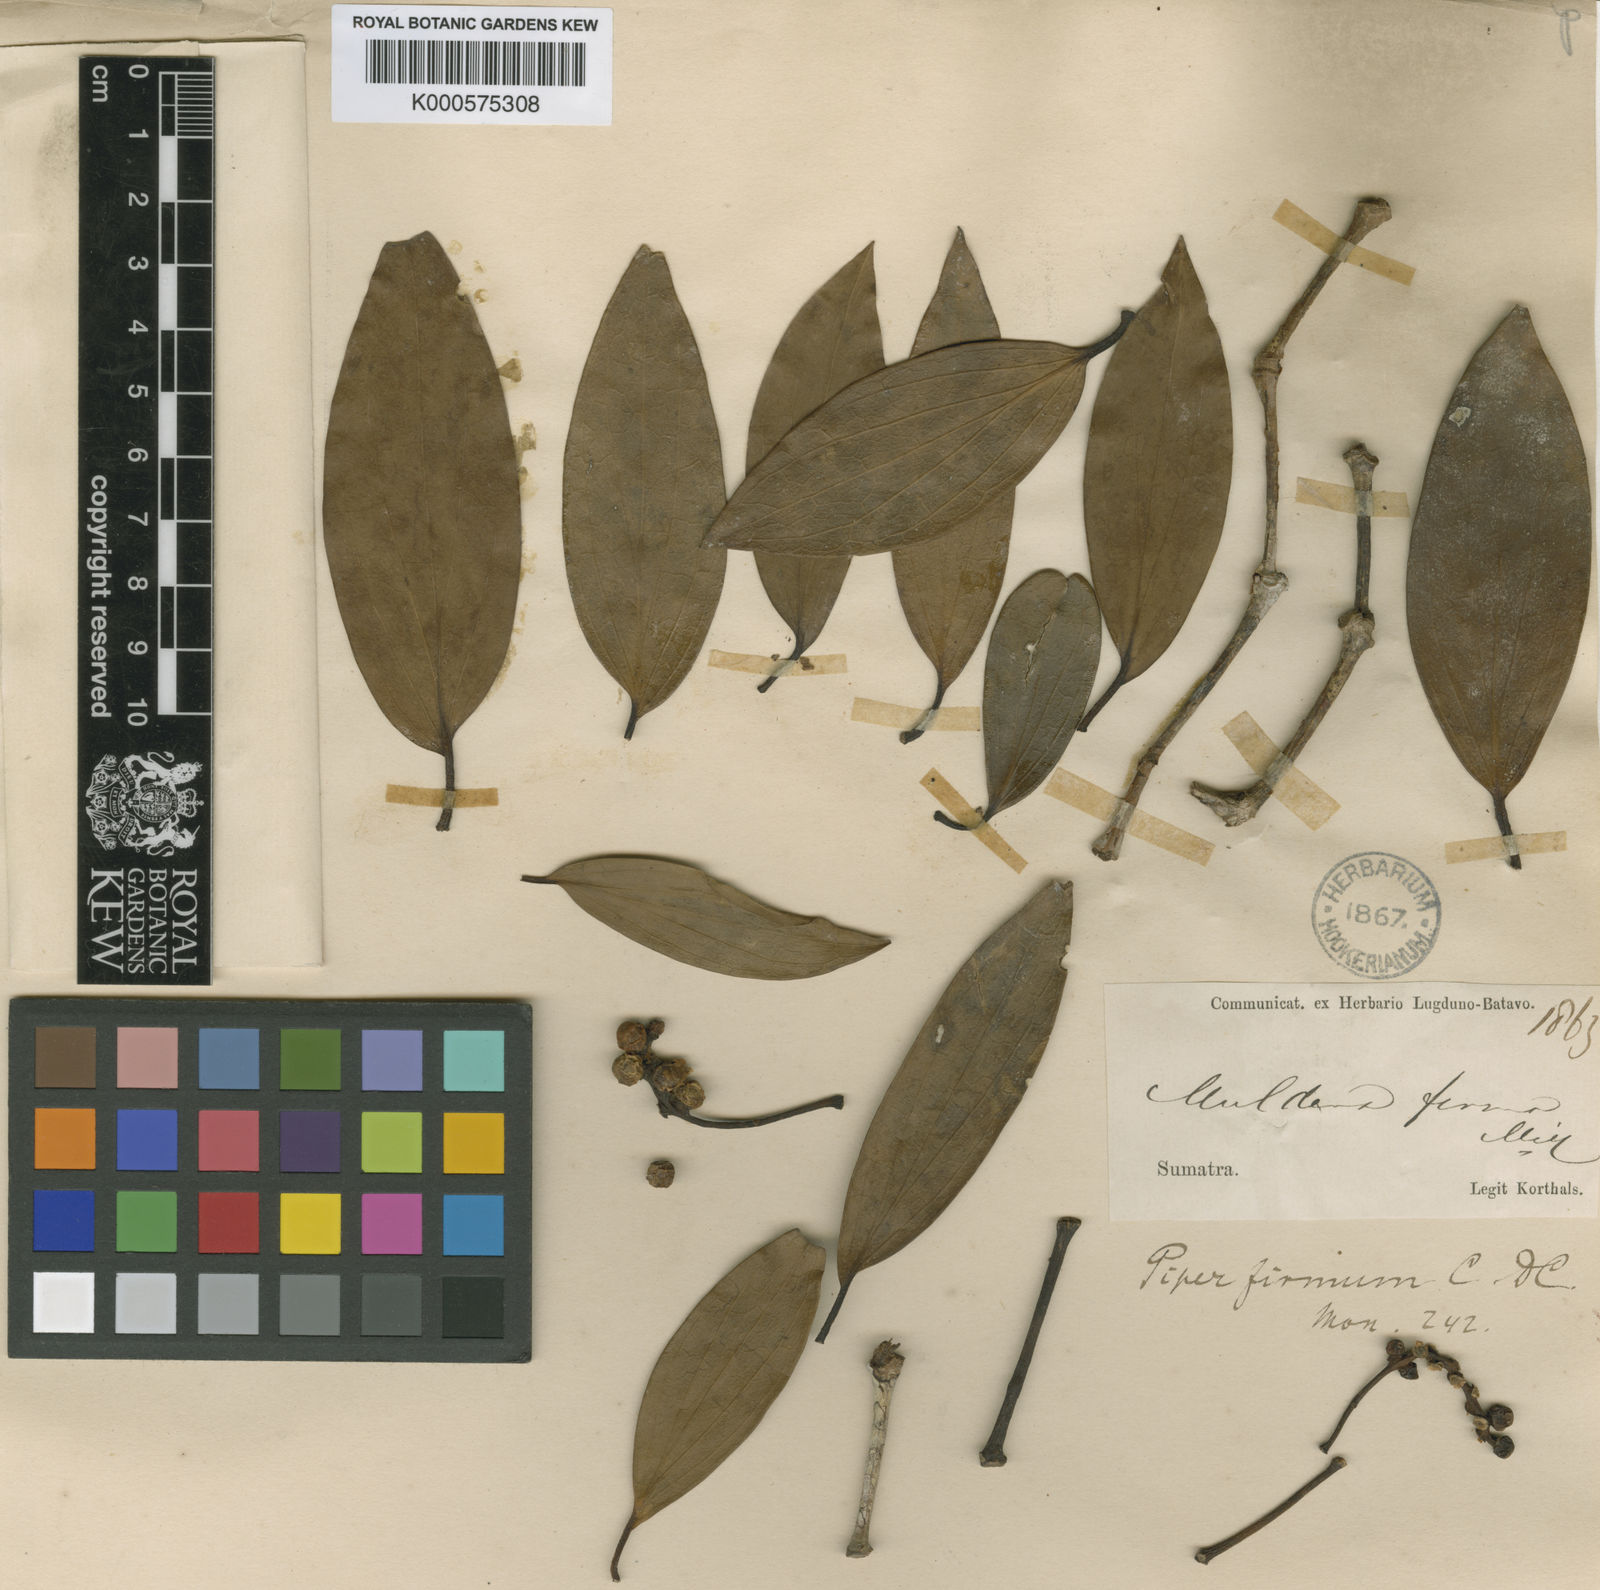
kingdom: Plantae
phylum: Tracheophyta
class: Magnoliopsida
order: Piperales
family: Piperaceae
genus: Piper
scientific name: Piper baccatum
